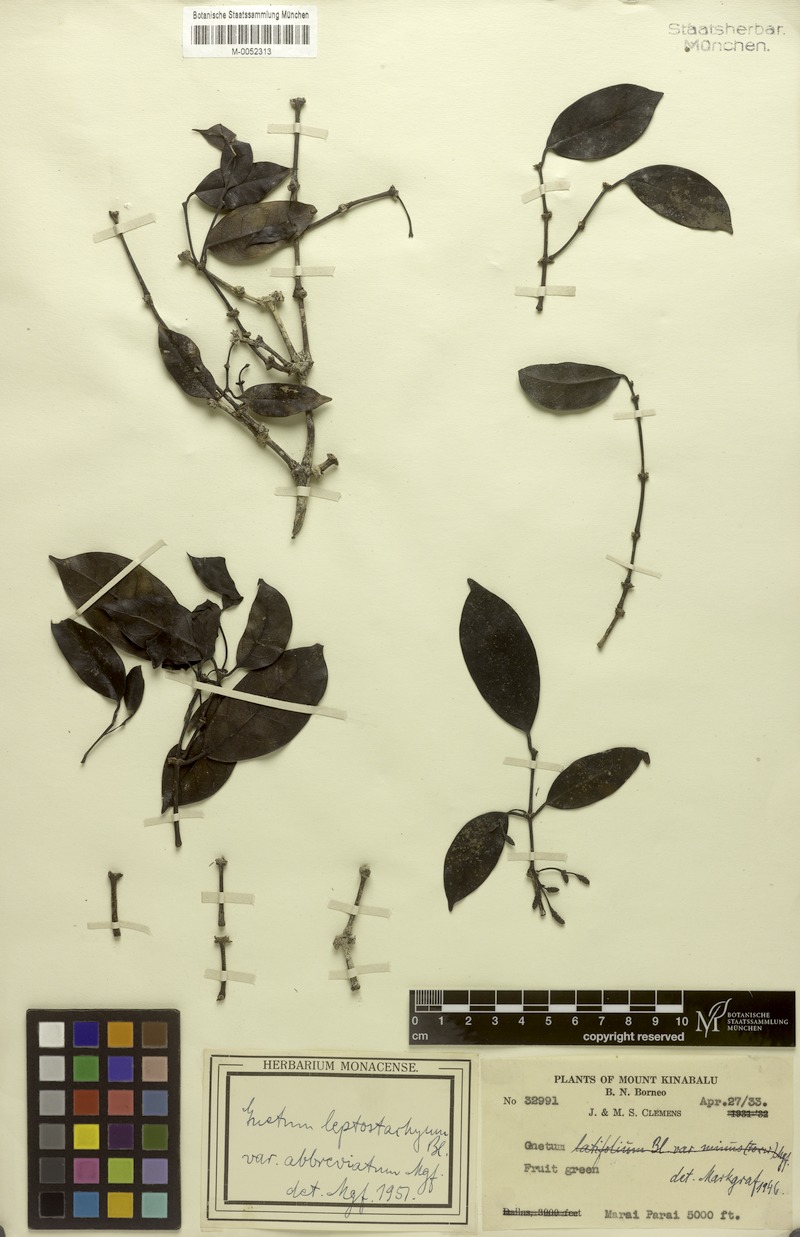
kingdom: Plantae
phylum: Tracheophyta
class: Gnetopsida
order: Gnetales
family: Gnetaceae
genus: Gnetum
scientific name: Gnetum leptostachyum
